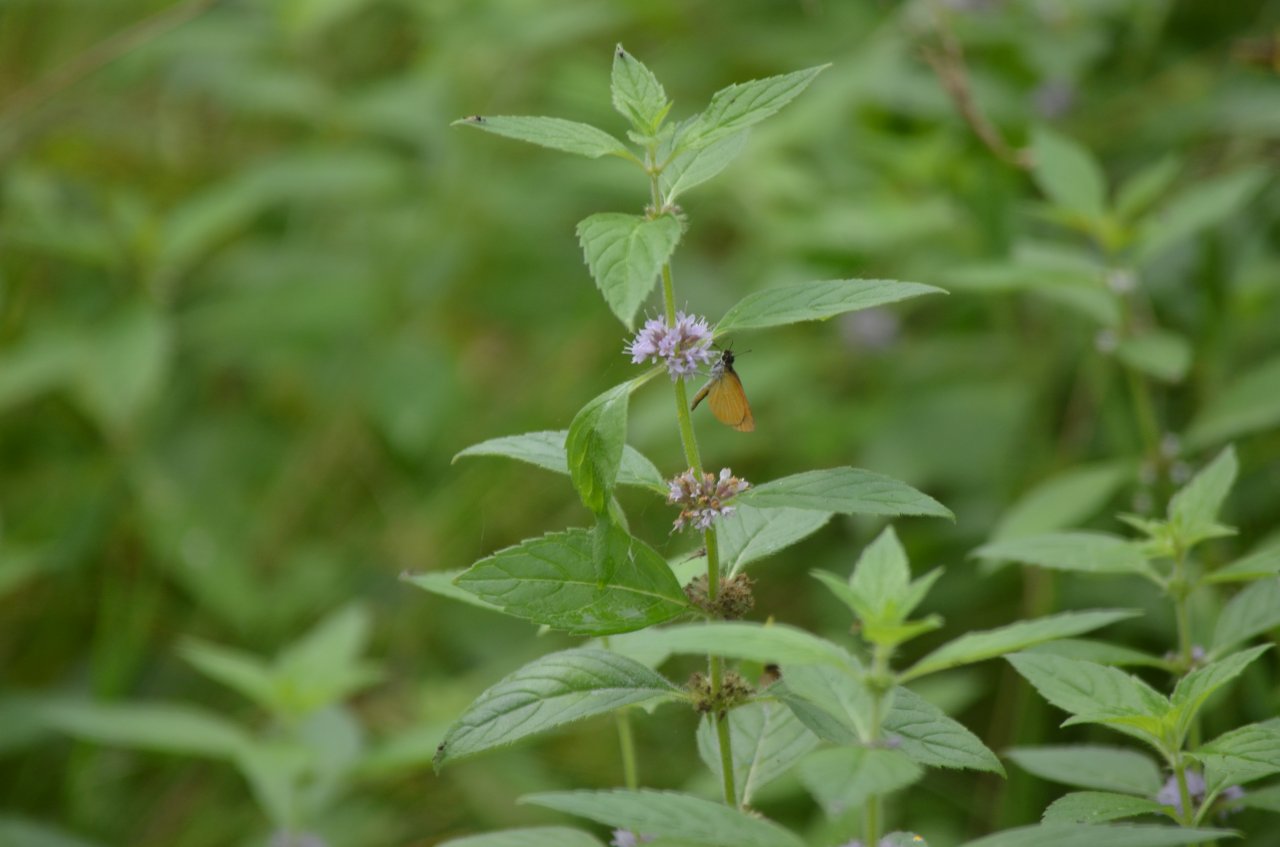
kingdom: Animalia
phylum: Arthropoda
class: Insecta
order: Lepidoptera
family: Hesperiidae
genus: Ancyloxypha
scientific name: Ancyloxypha numitor
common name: Least Skipper
